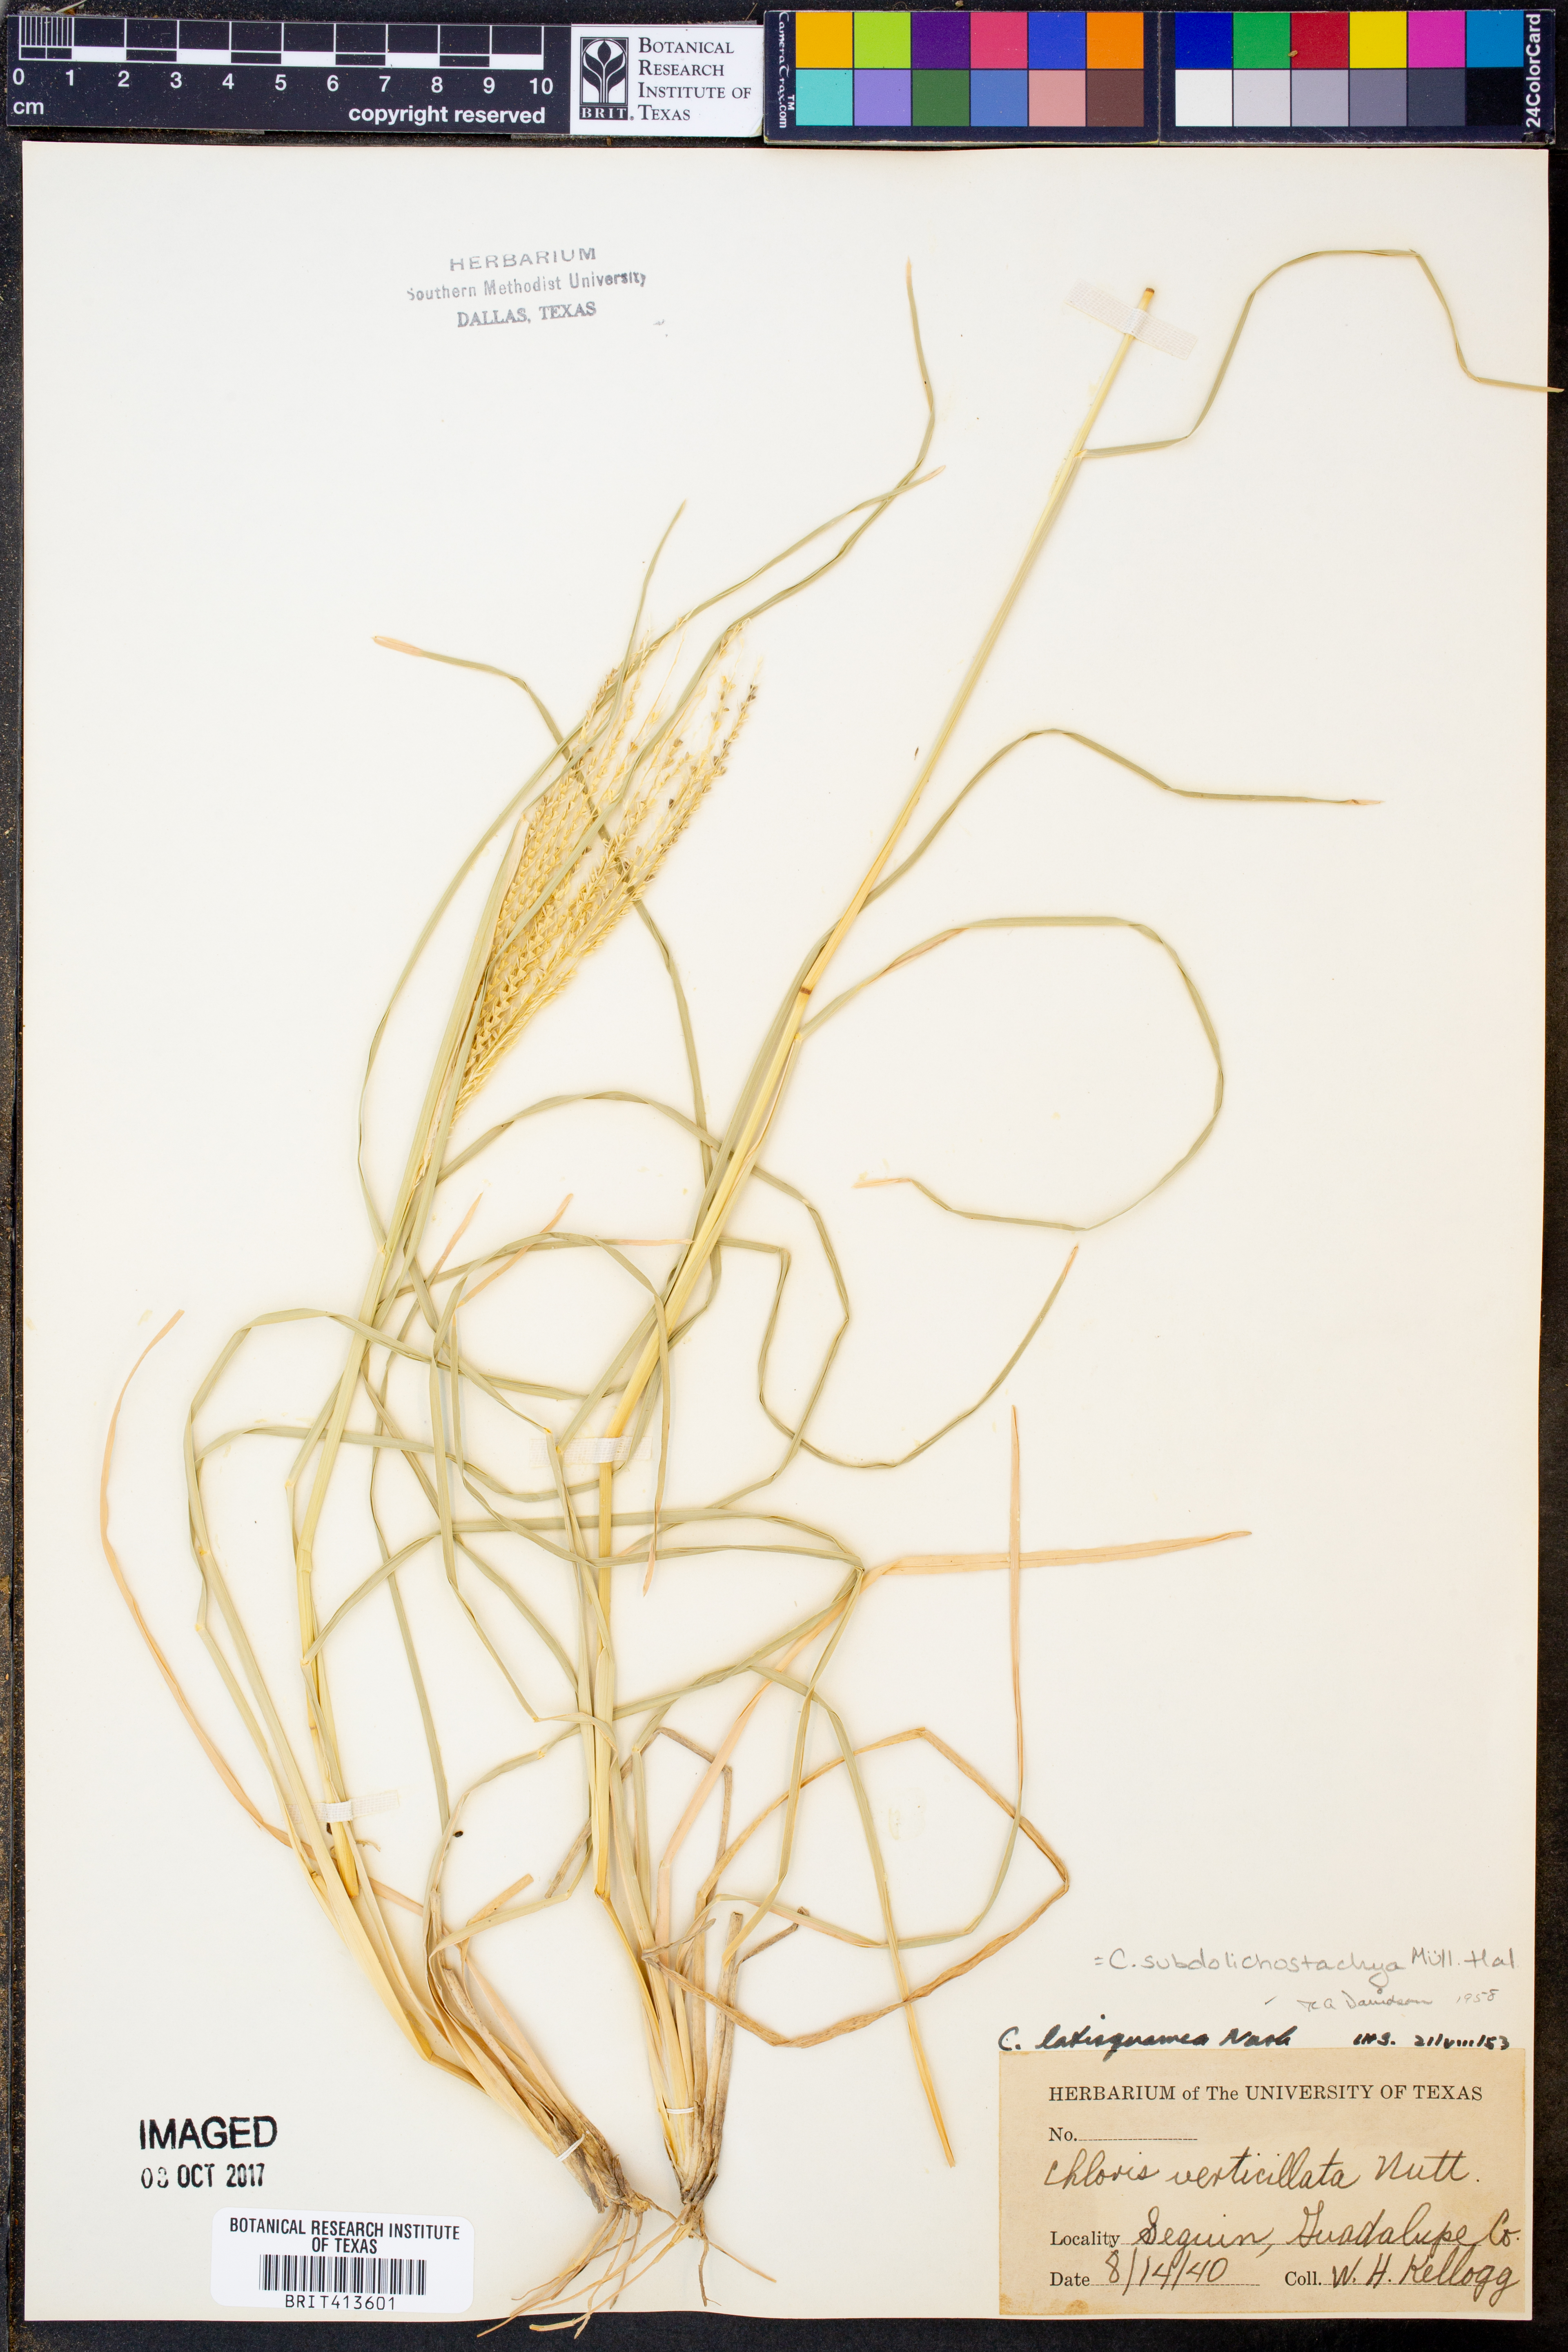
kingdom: Plantae
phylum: Tracheophyta
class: Liliopsida
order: Poales
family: Poaceae
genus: Chloris
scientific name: Chloris verticillata
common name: Tumble windmill grass
